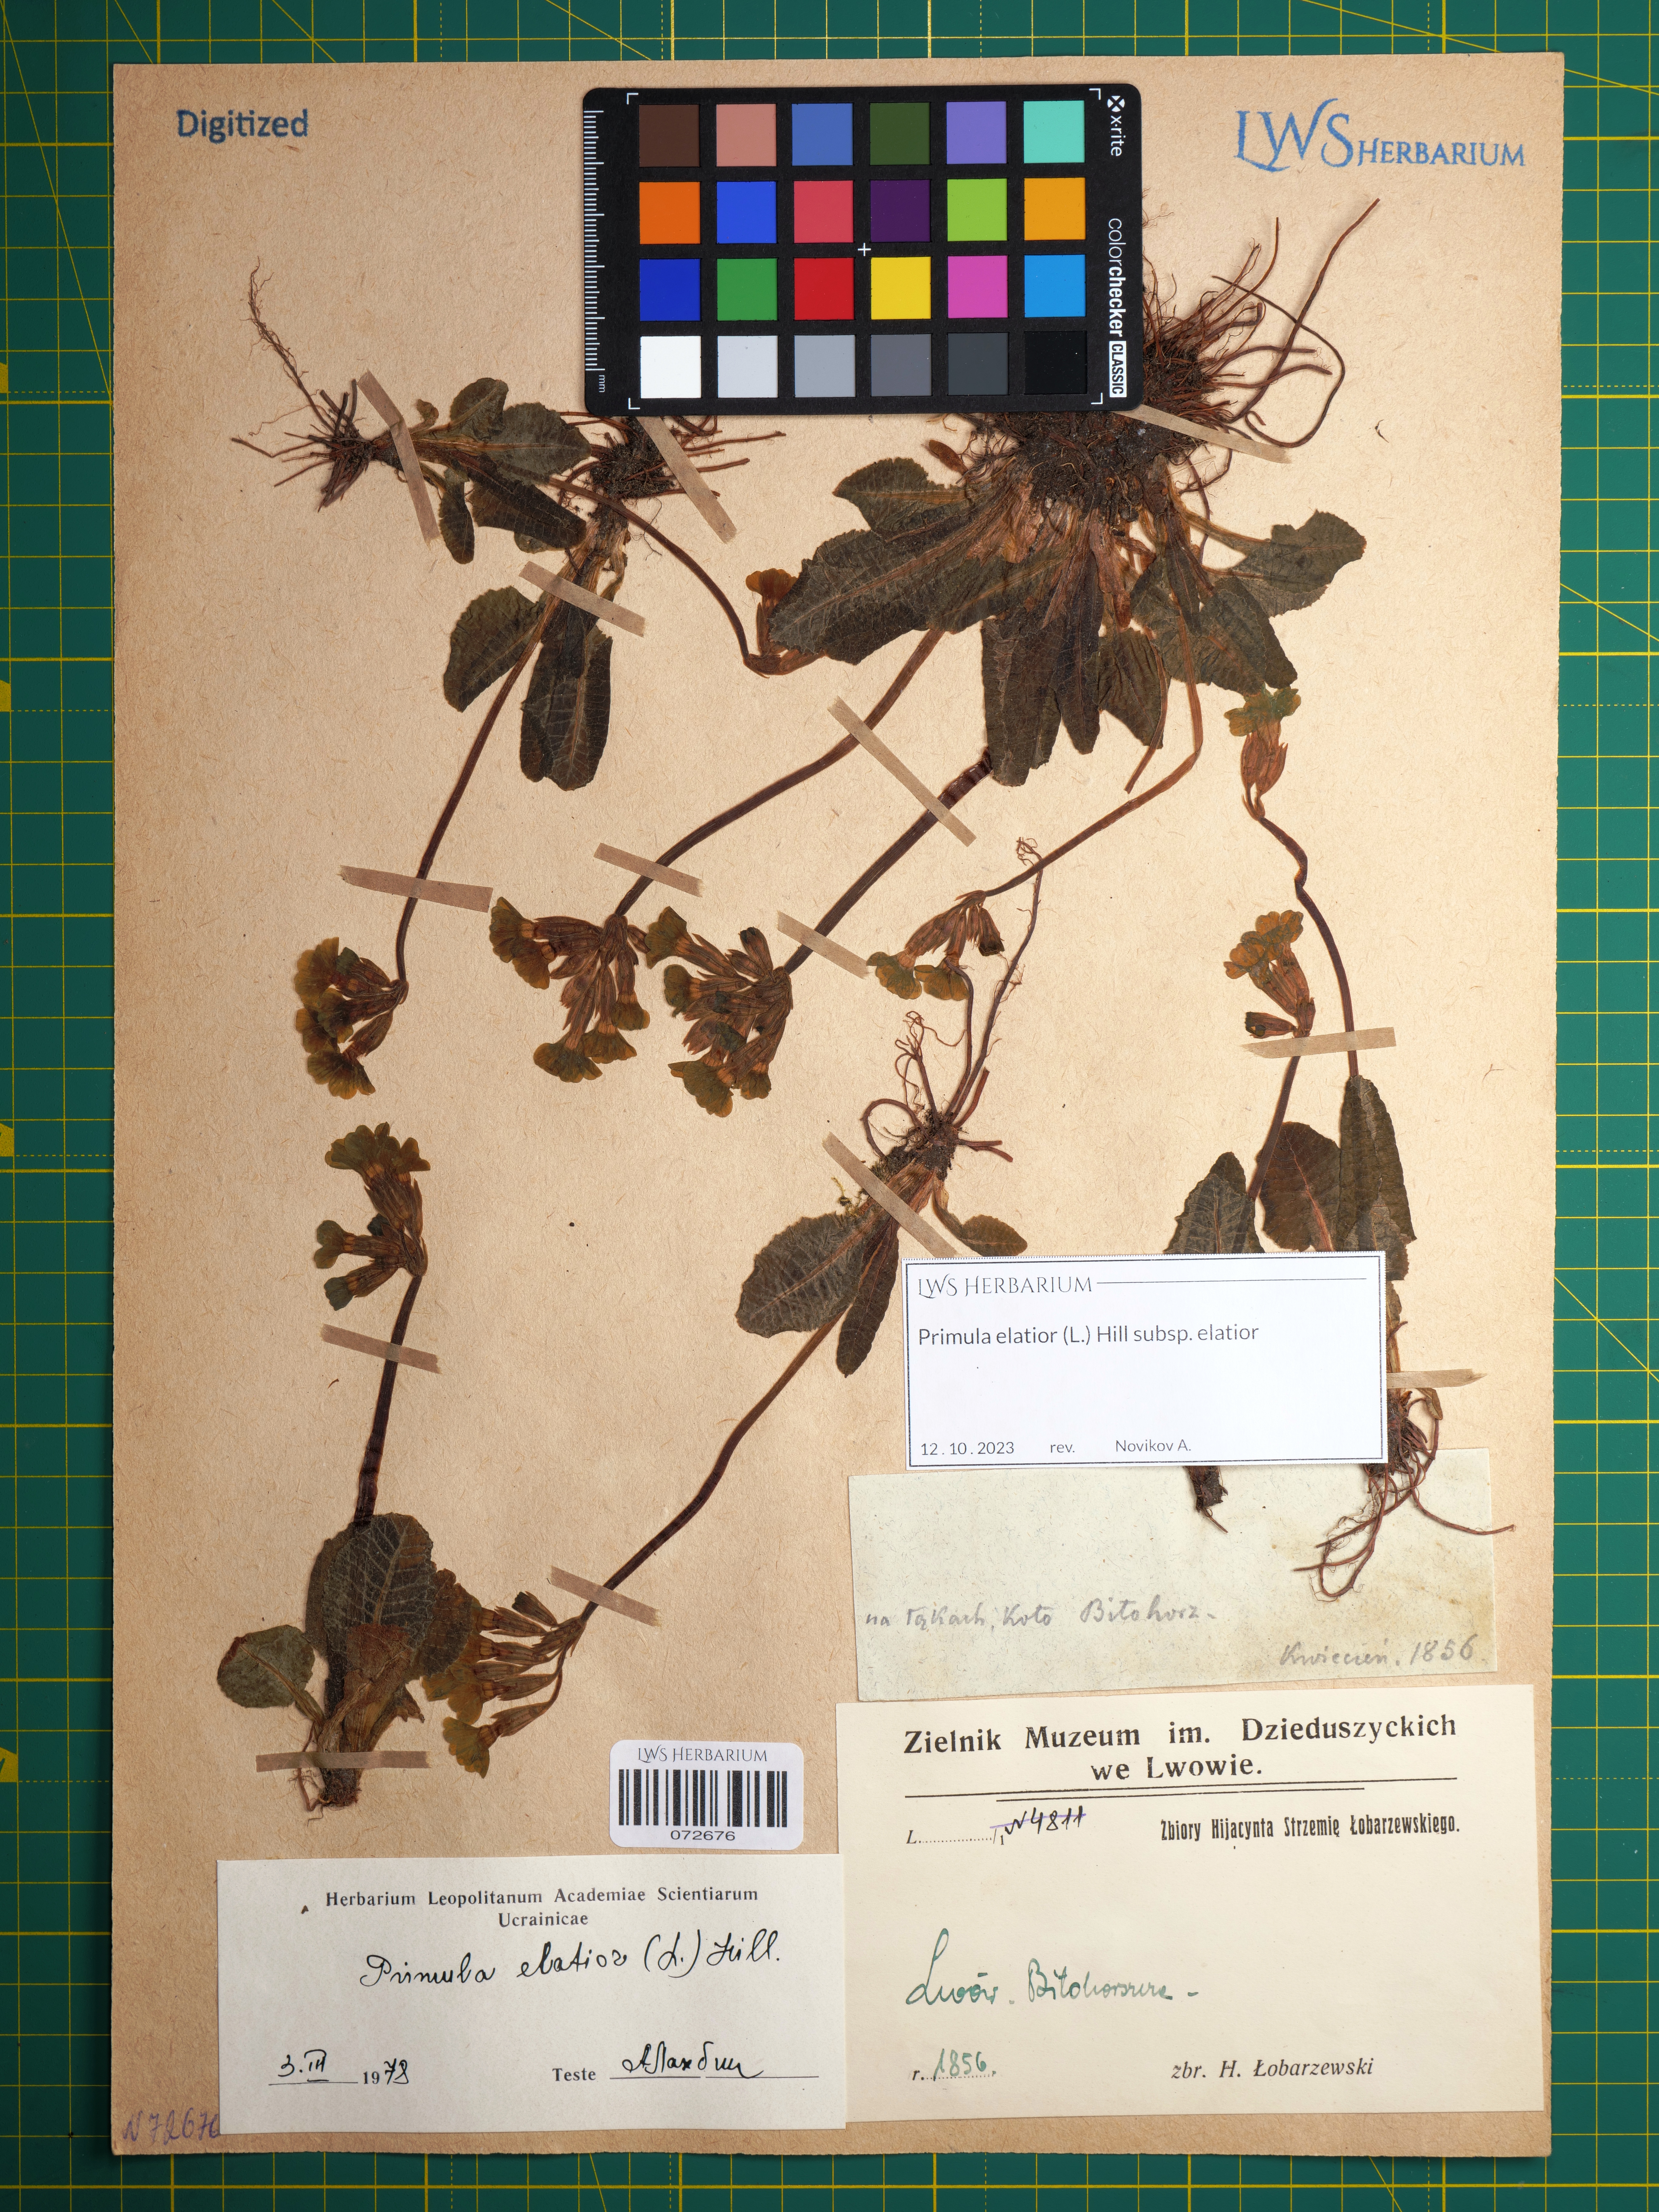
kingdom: Plantae
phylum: Tracheophyta
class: Magnoliopsida
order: Ericales
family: Primulaceae
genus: Primula
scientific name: Primula elatior
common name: Oxlip
